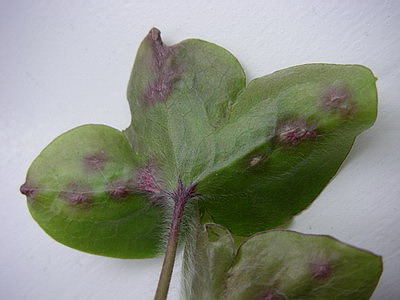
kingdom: Fungi
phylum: Basidiomycota
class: Ustilaginomycetes
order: Urocystidales
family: Urocystidaceae
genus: Urocystis
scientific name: Urocystis anemones
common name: anemone-brand
